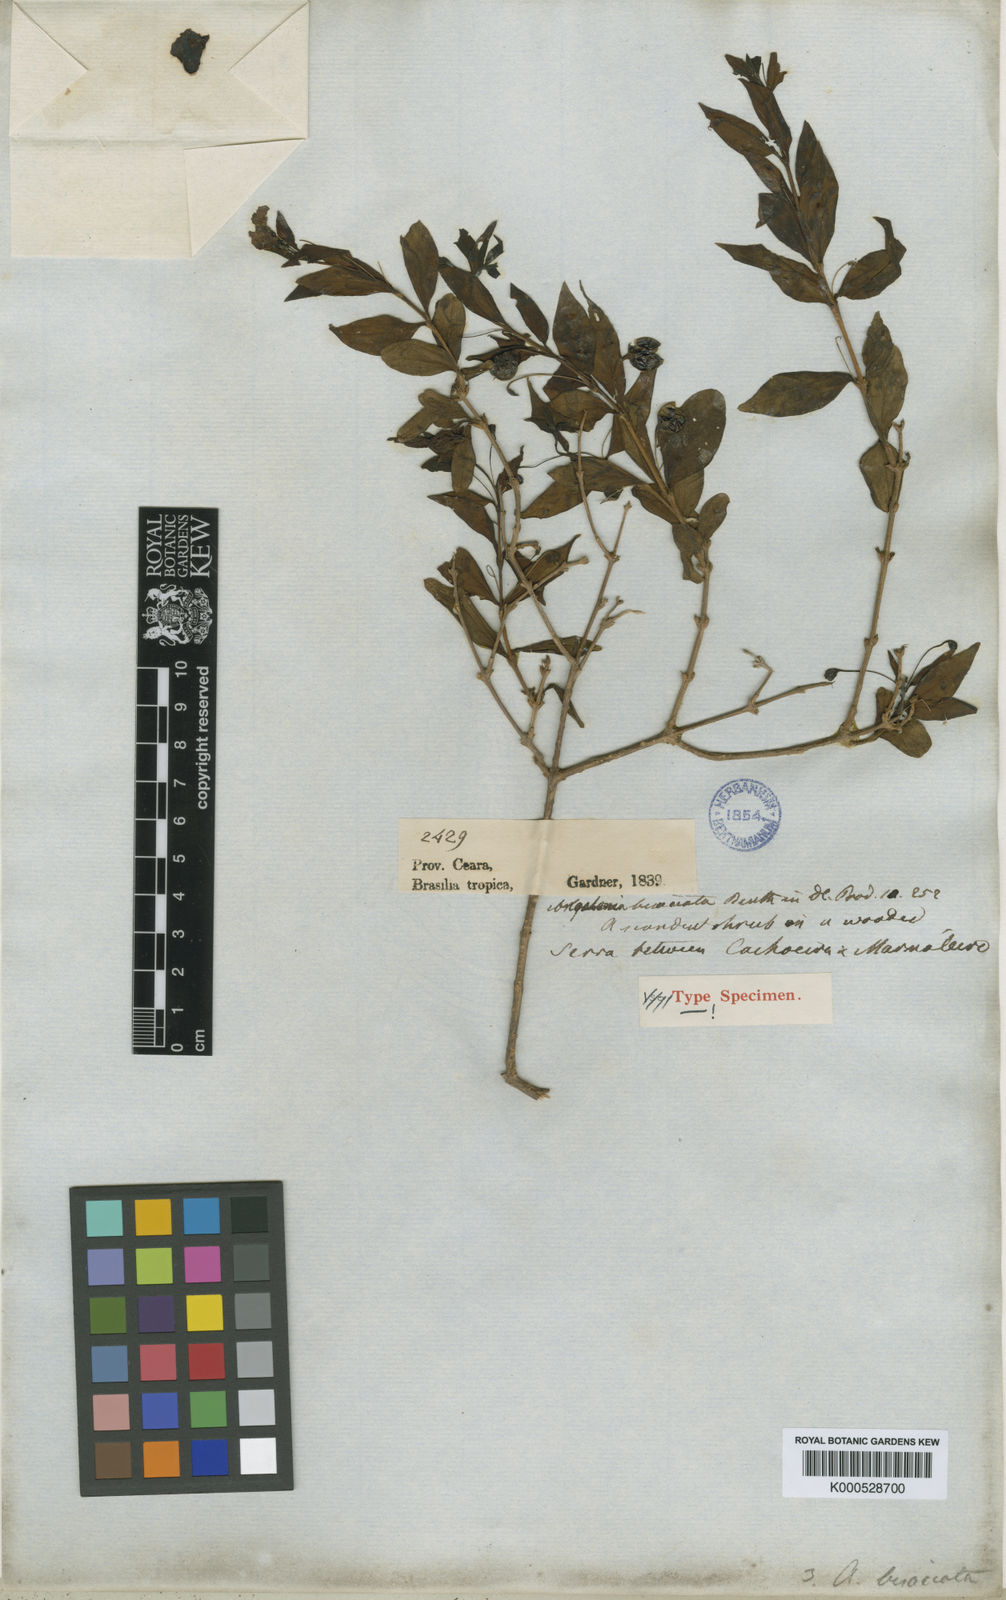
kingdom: Plantae
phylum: Tracheophyta
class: Magnoliopsida
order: Lamiales
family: Plantaginaceae
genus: Angelonia
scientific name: Angelonia campestris
